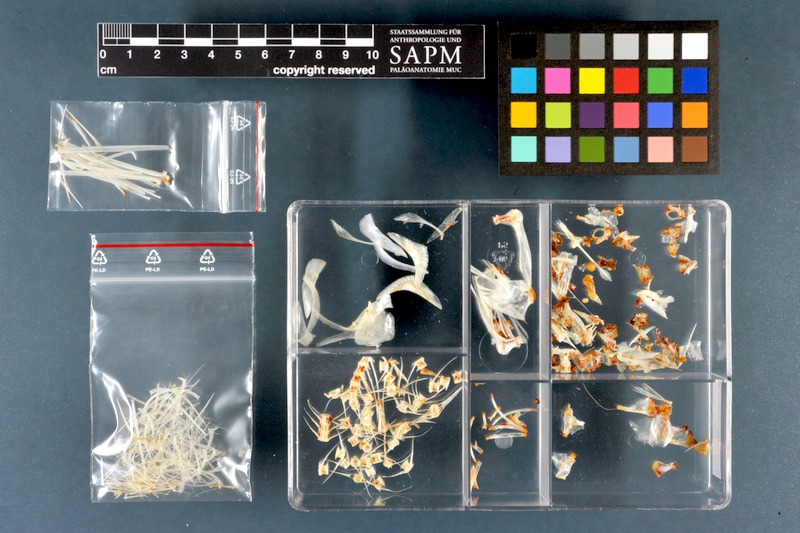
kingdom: Animalia
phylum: Chordata
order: Cypriniformes
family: Cyprinidae
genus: Pelecus
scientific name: Pelecus cultratus
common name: Ziege
